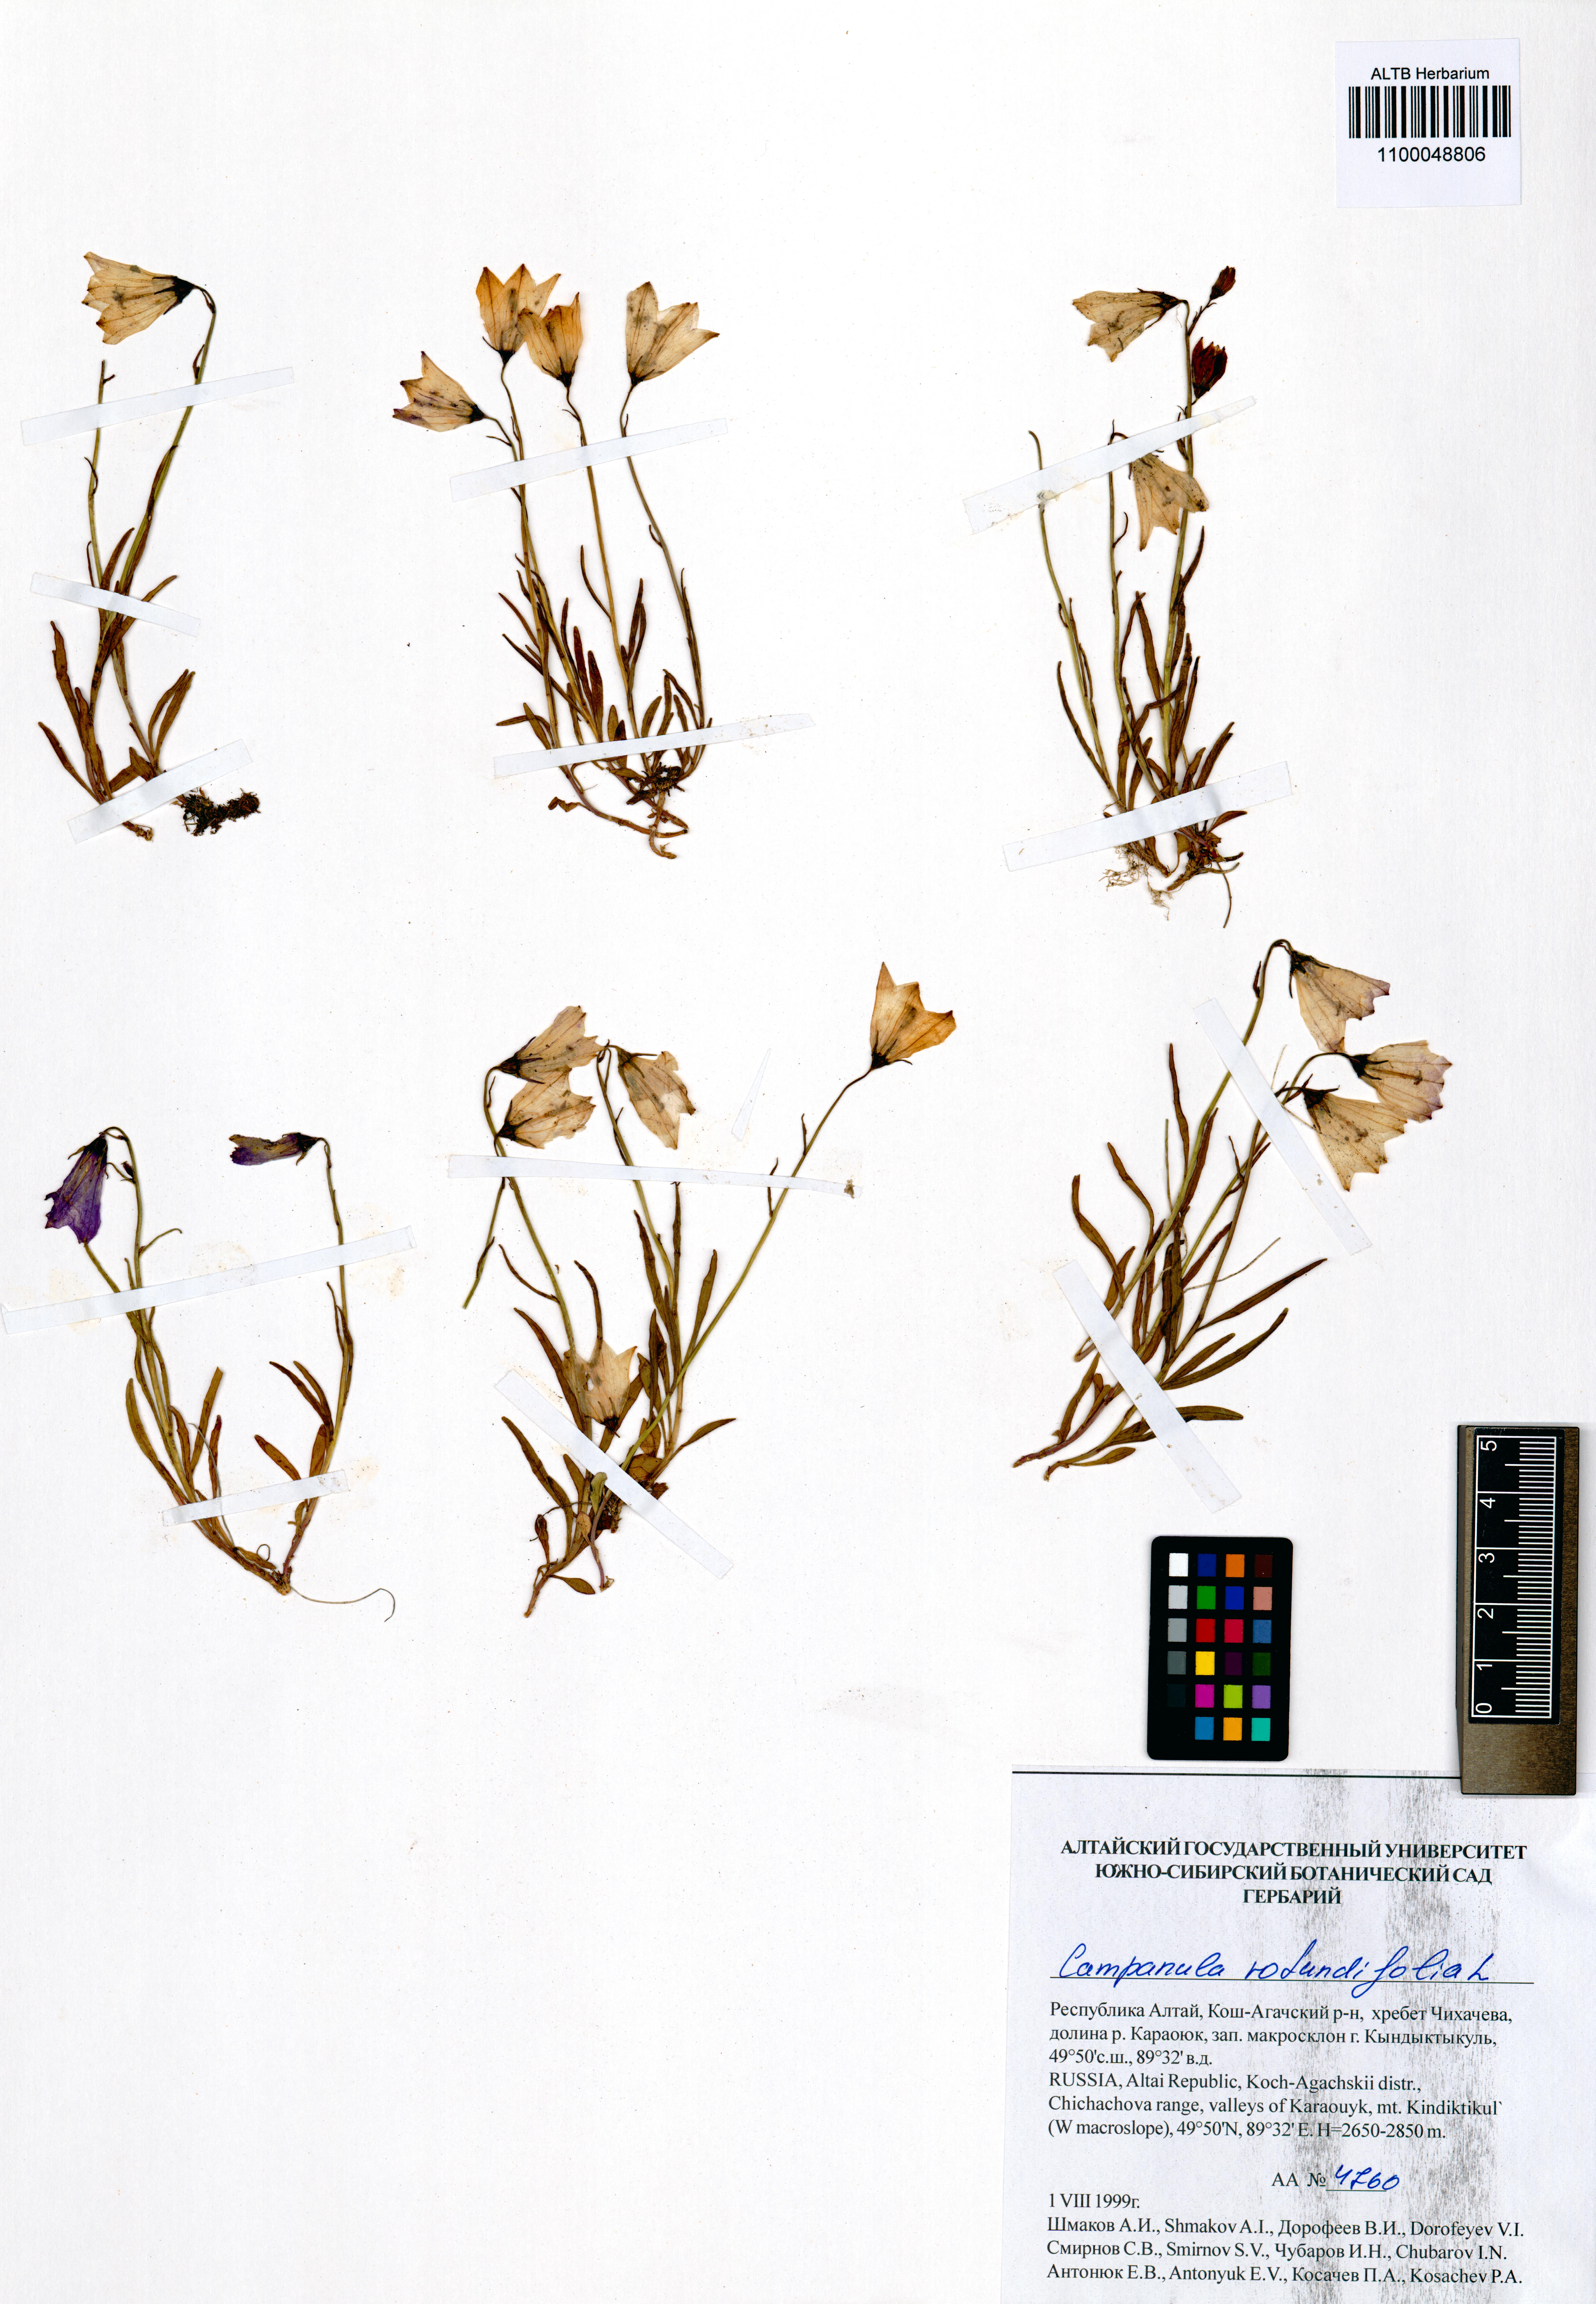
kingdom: Plantae
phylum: Tracheophyta
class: Magnoliopsida
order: Asterales
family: Campanulaceae
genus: Campanula
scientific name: Campanula rotundifolia
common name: Harebell
